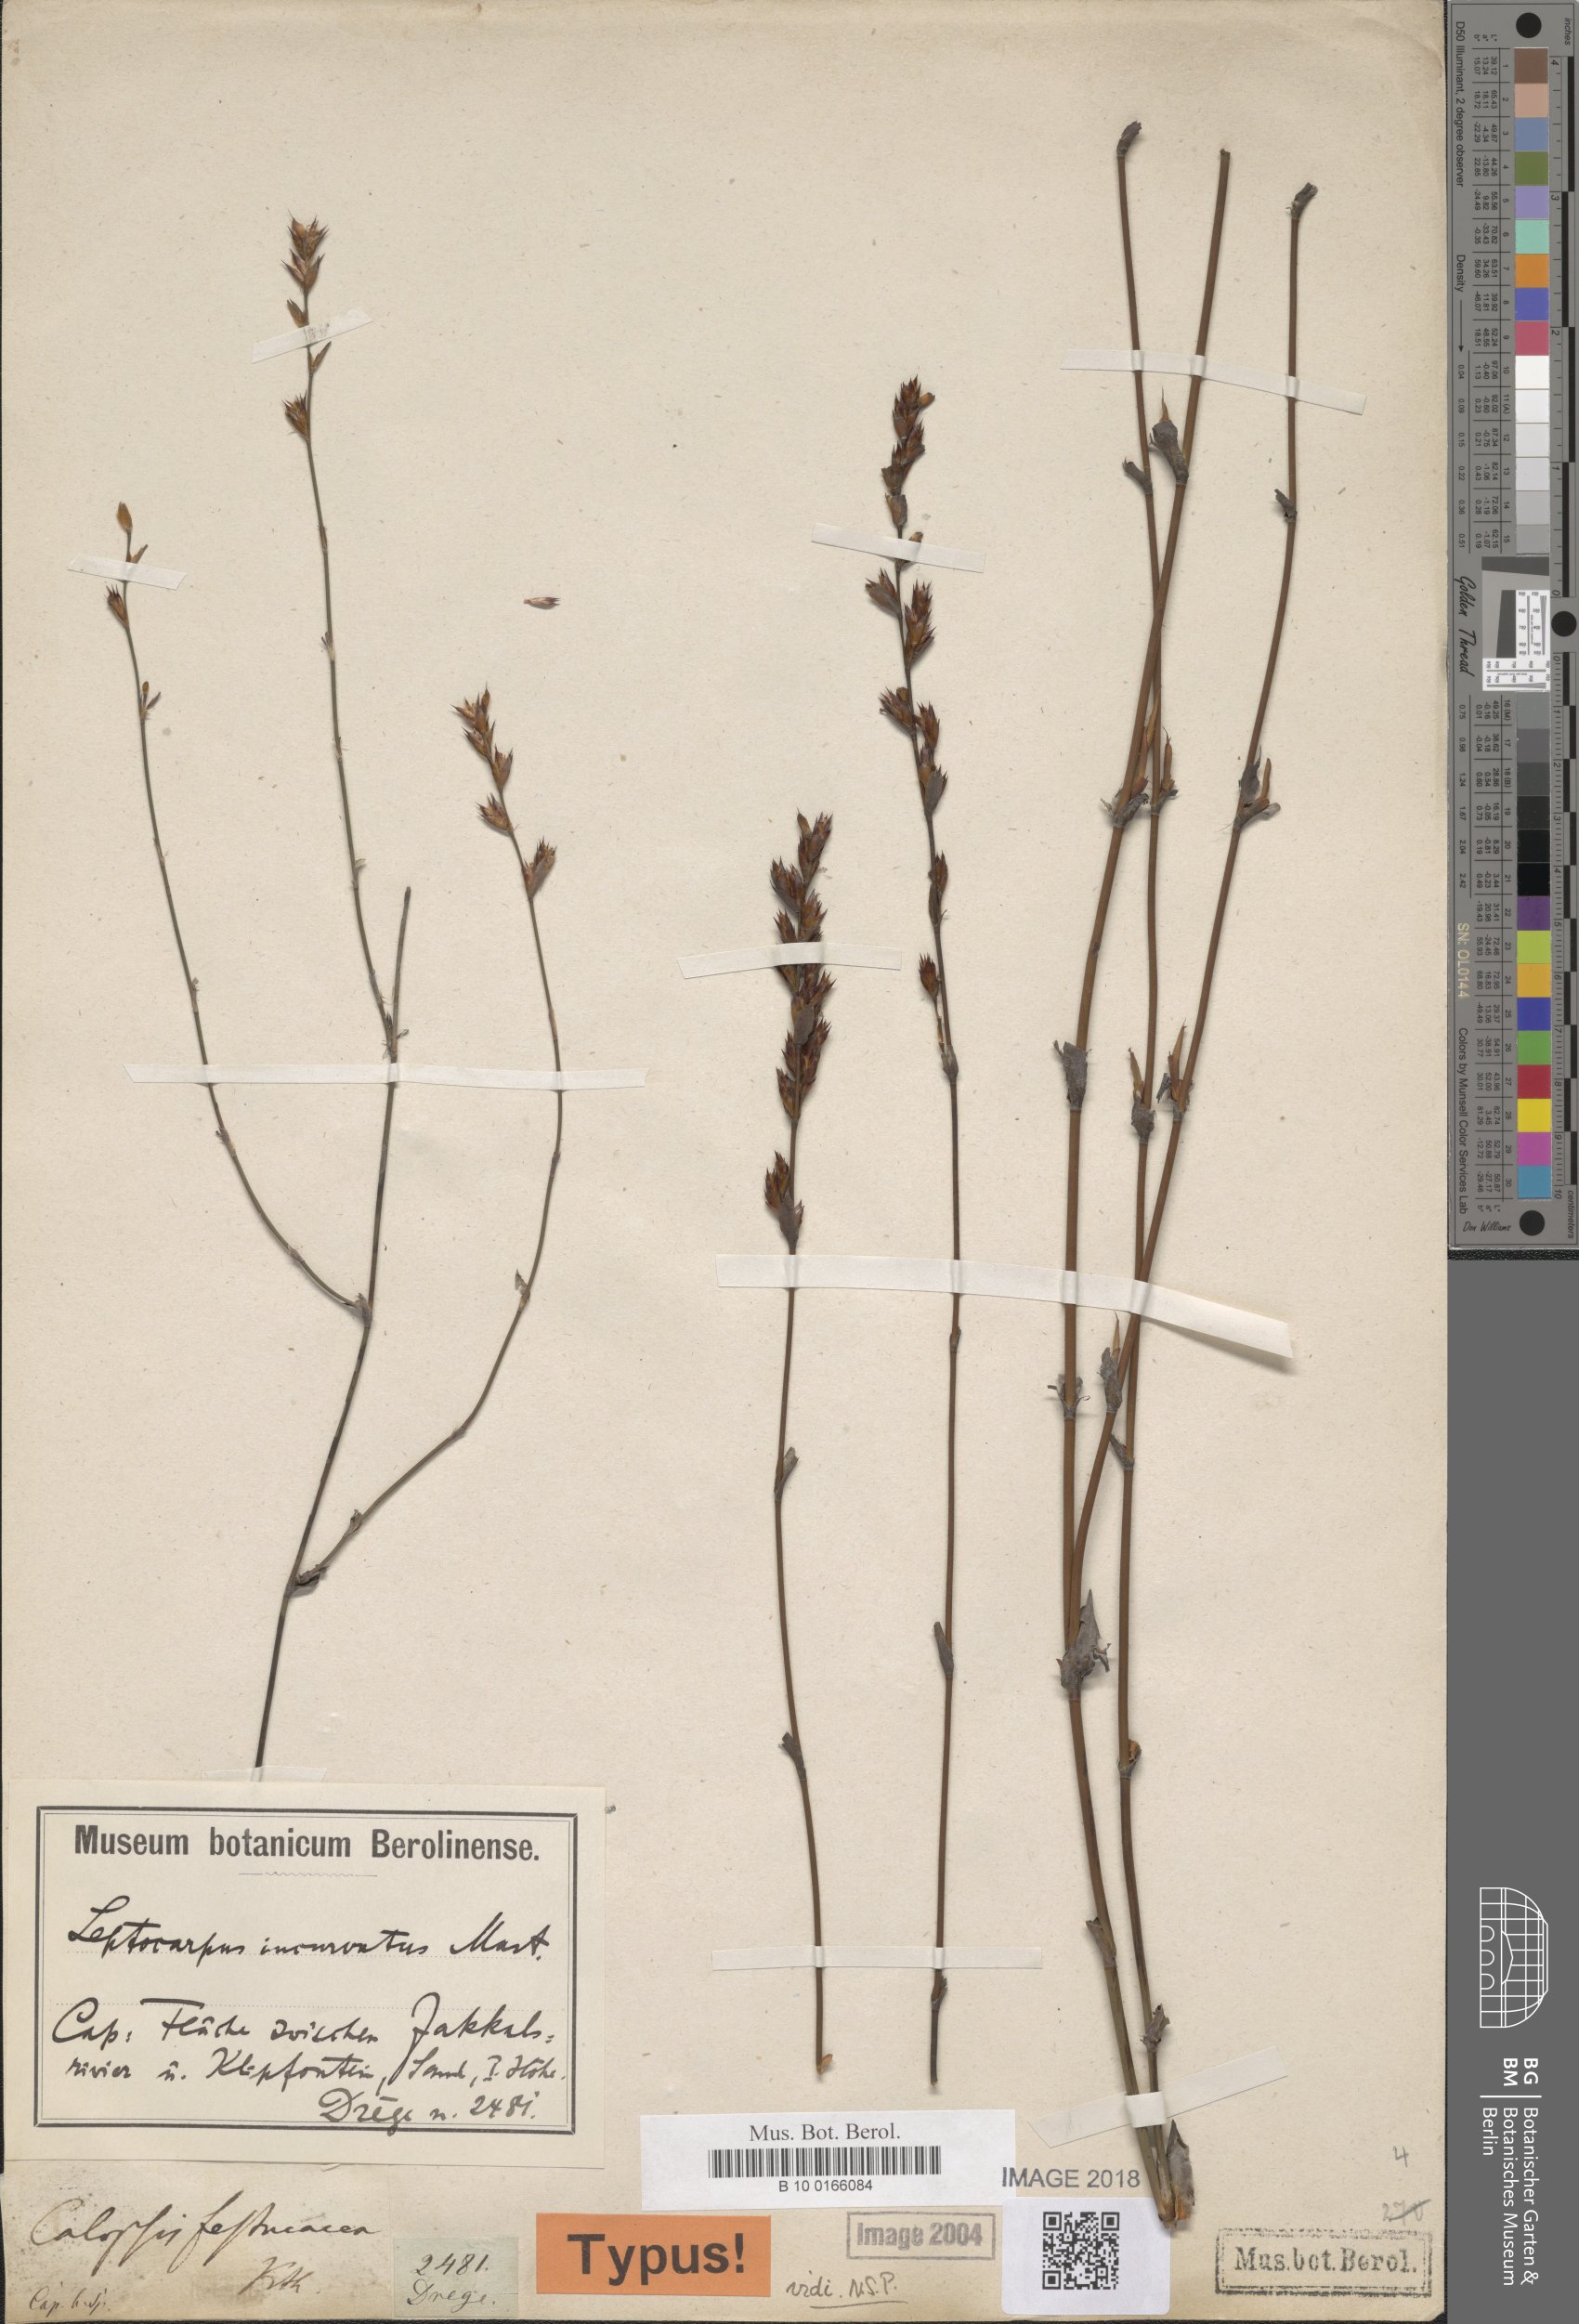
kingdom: Plantae
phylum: Tracheophyta
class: Liliopsida
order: Poales
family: Restionaceae
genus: Restio
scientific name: Restio vimineus
